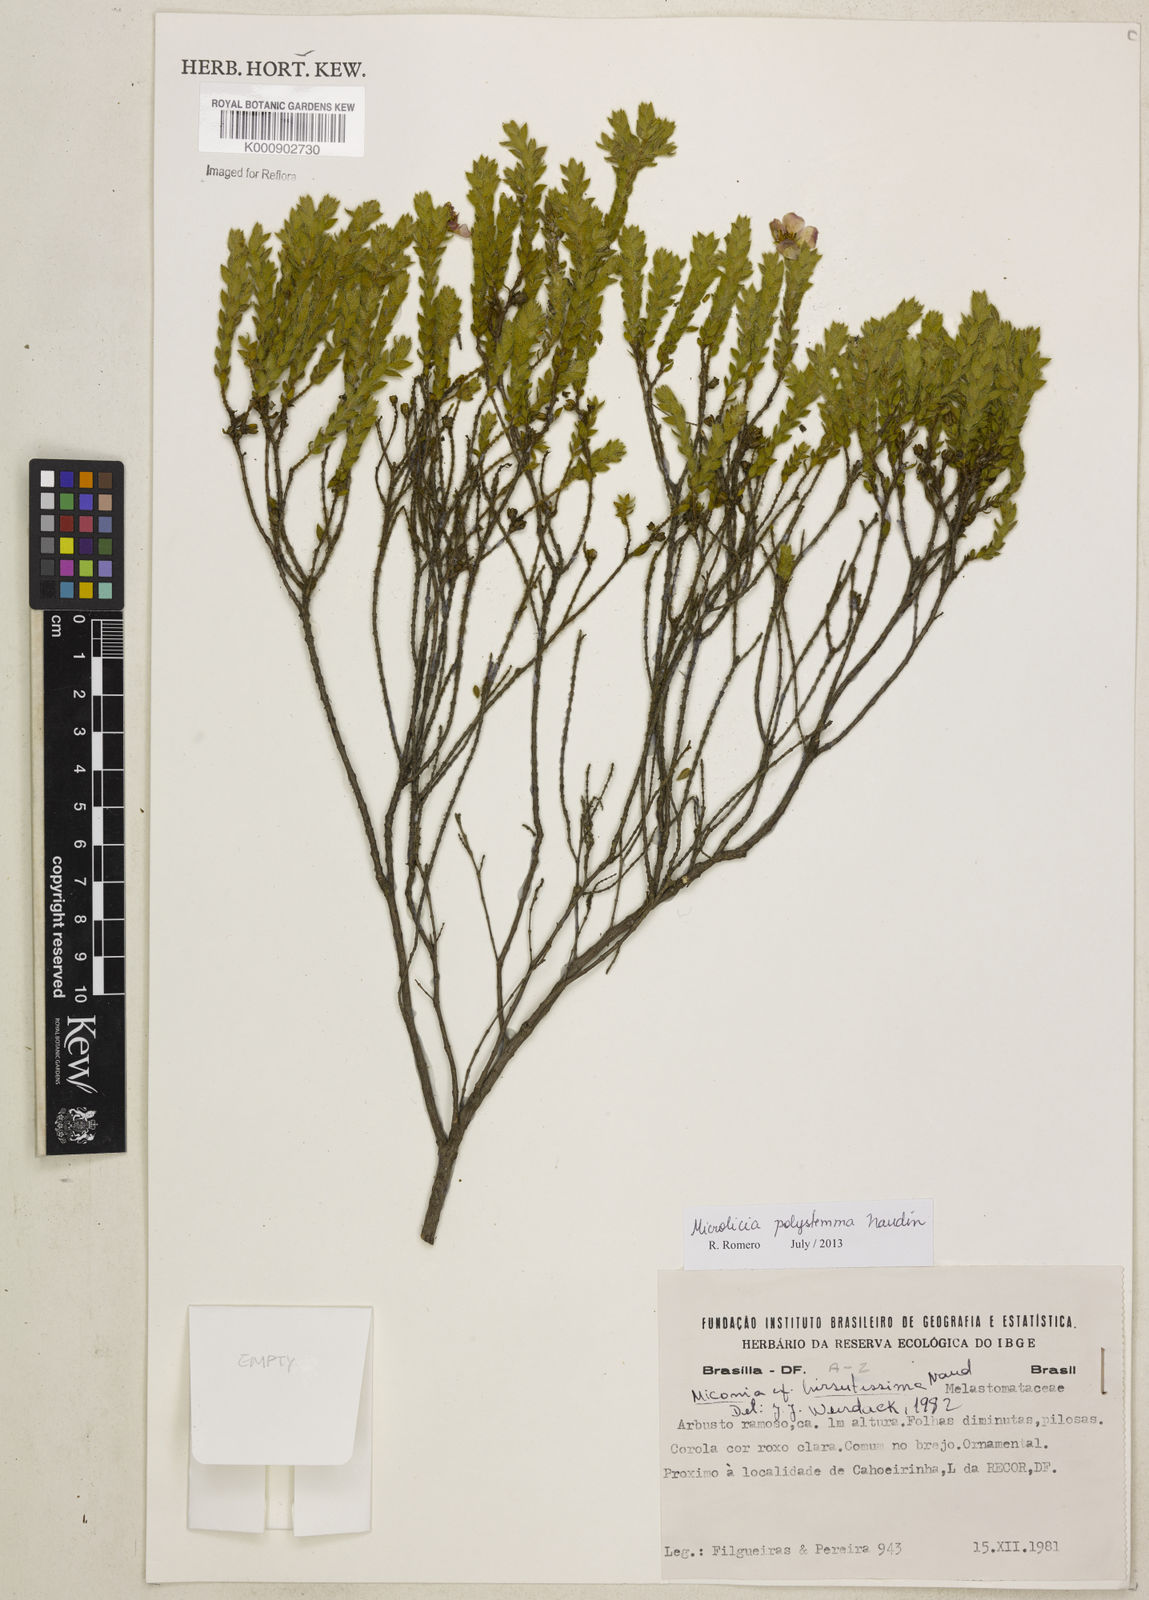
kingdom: Plantae
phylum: Tracheophyta
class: Magnoliopsida
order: Myrtales
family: Melastomataceae
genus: Microlicia
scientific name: Microlicia polystemma
